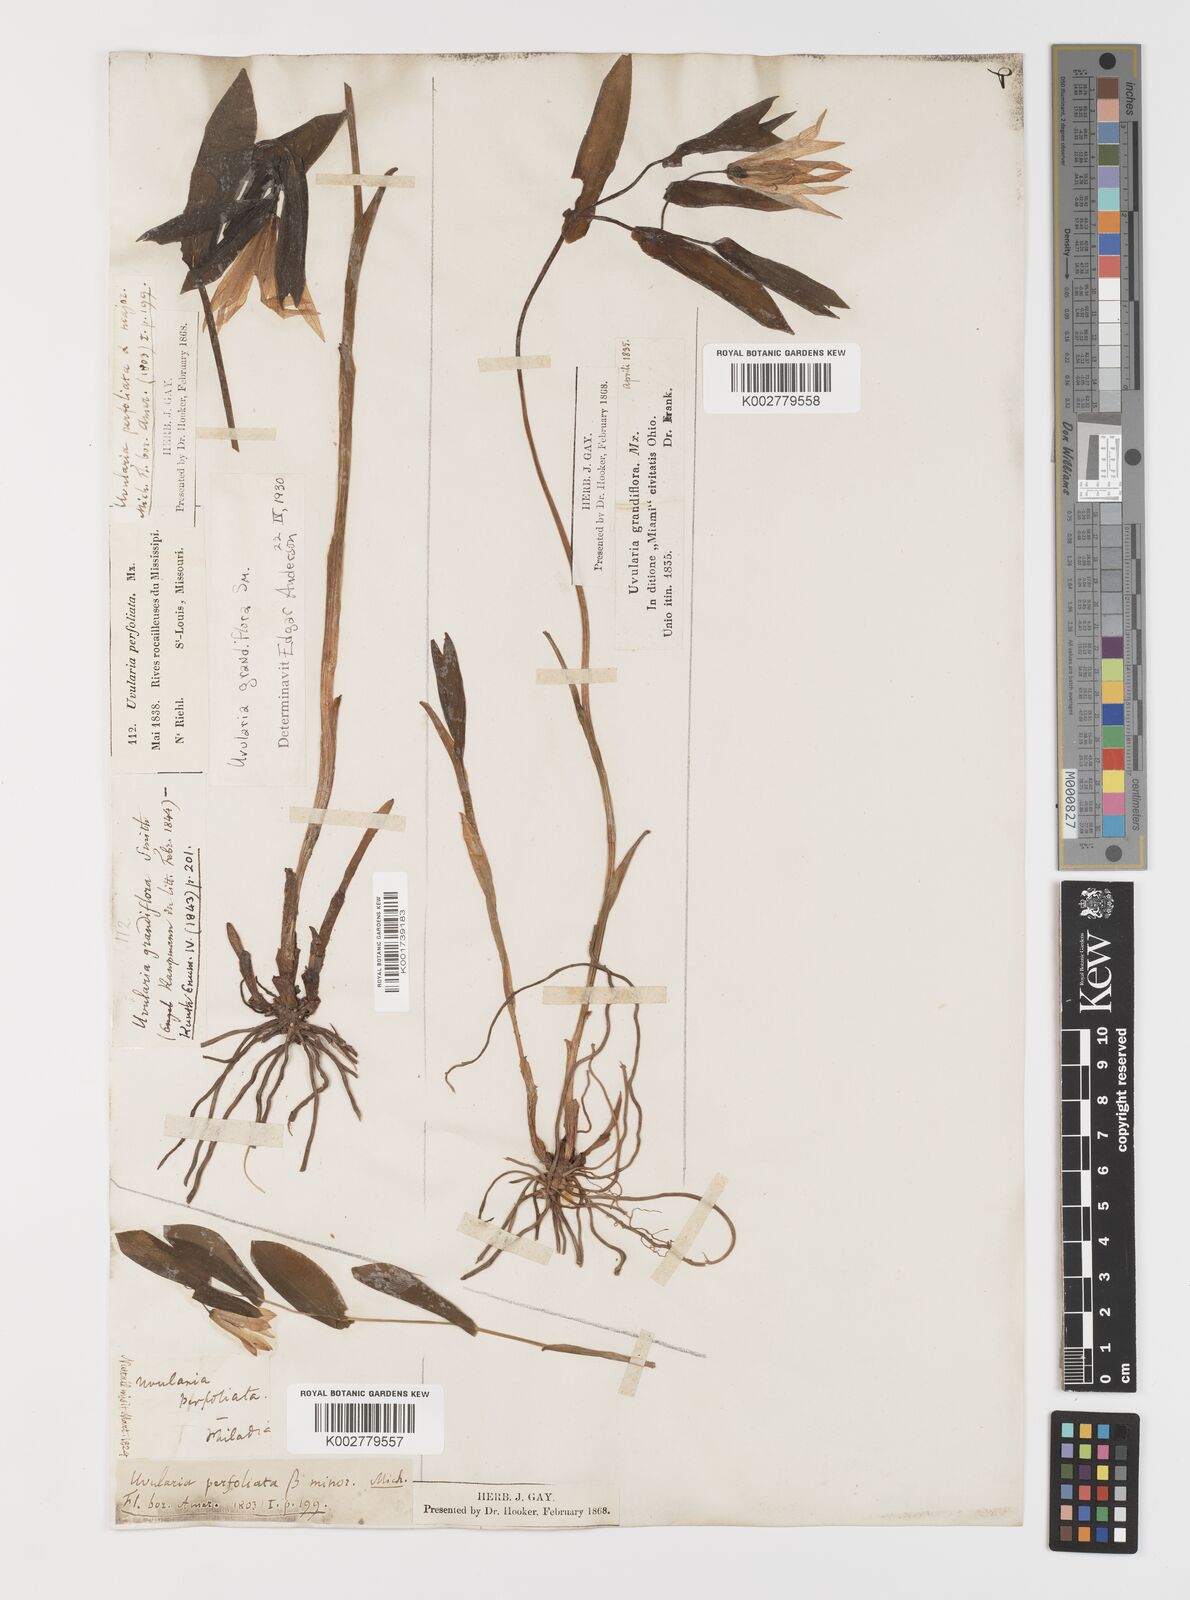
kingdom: Plantae
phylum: Tracheophyta
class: Liliopsida
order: Liliales
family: Colchicaceae
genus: Uvularia
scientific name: Uvularia grandiflora
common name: Bellwort
